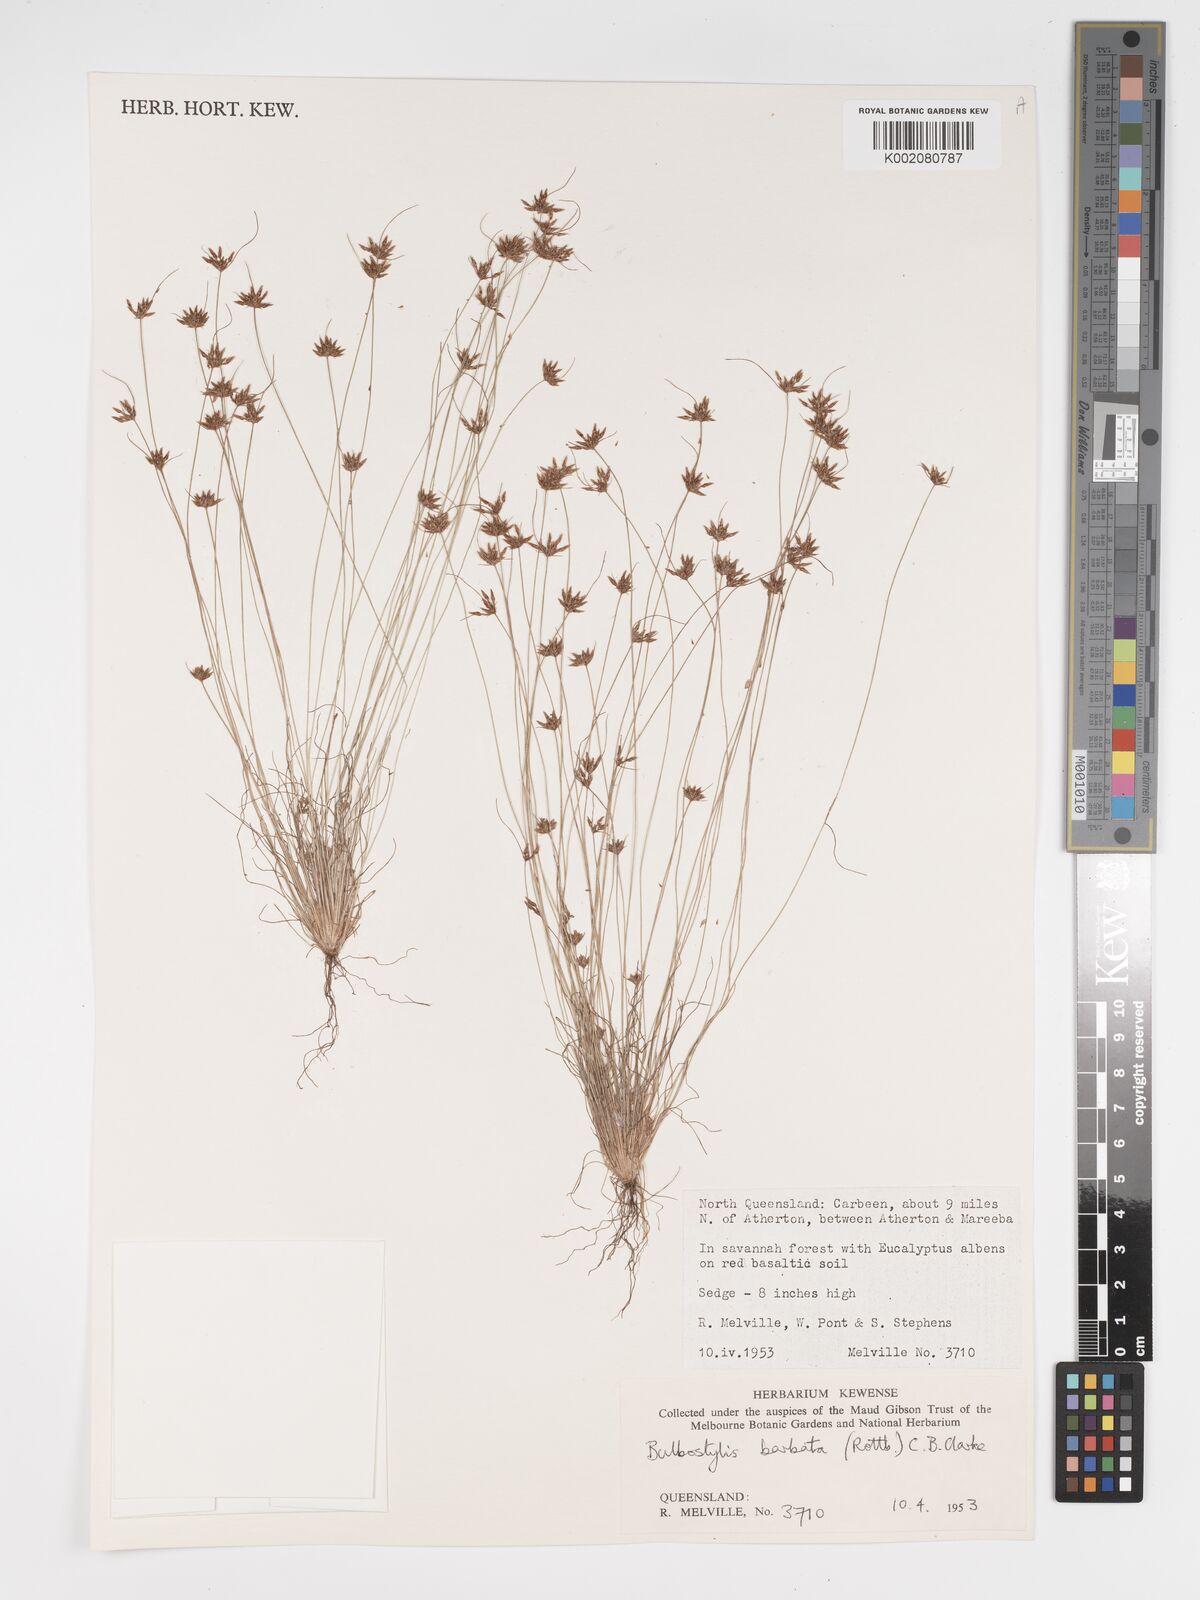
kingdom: Plantae
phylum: Tracheophyta
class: Liliopsida
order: Poales
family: Cyperaceae
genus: Bulbostylis
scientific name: Bulbostylis barbata
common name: Watergrass
